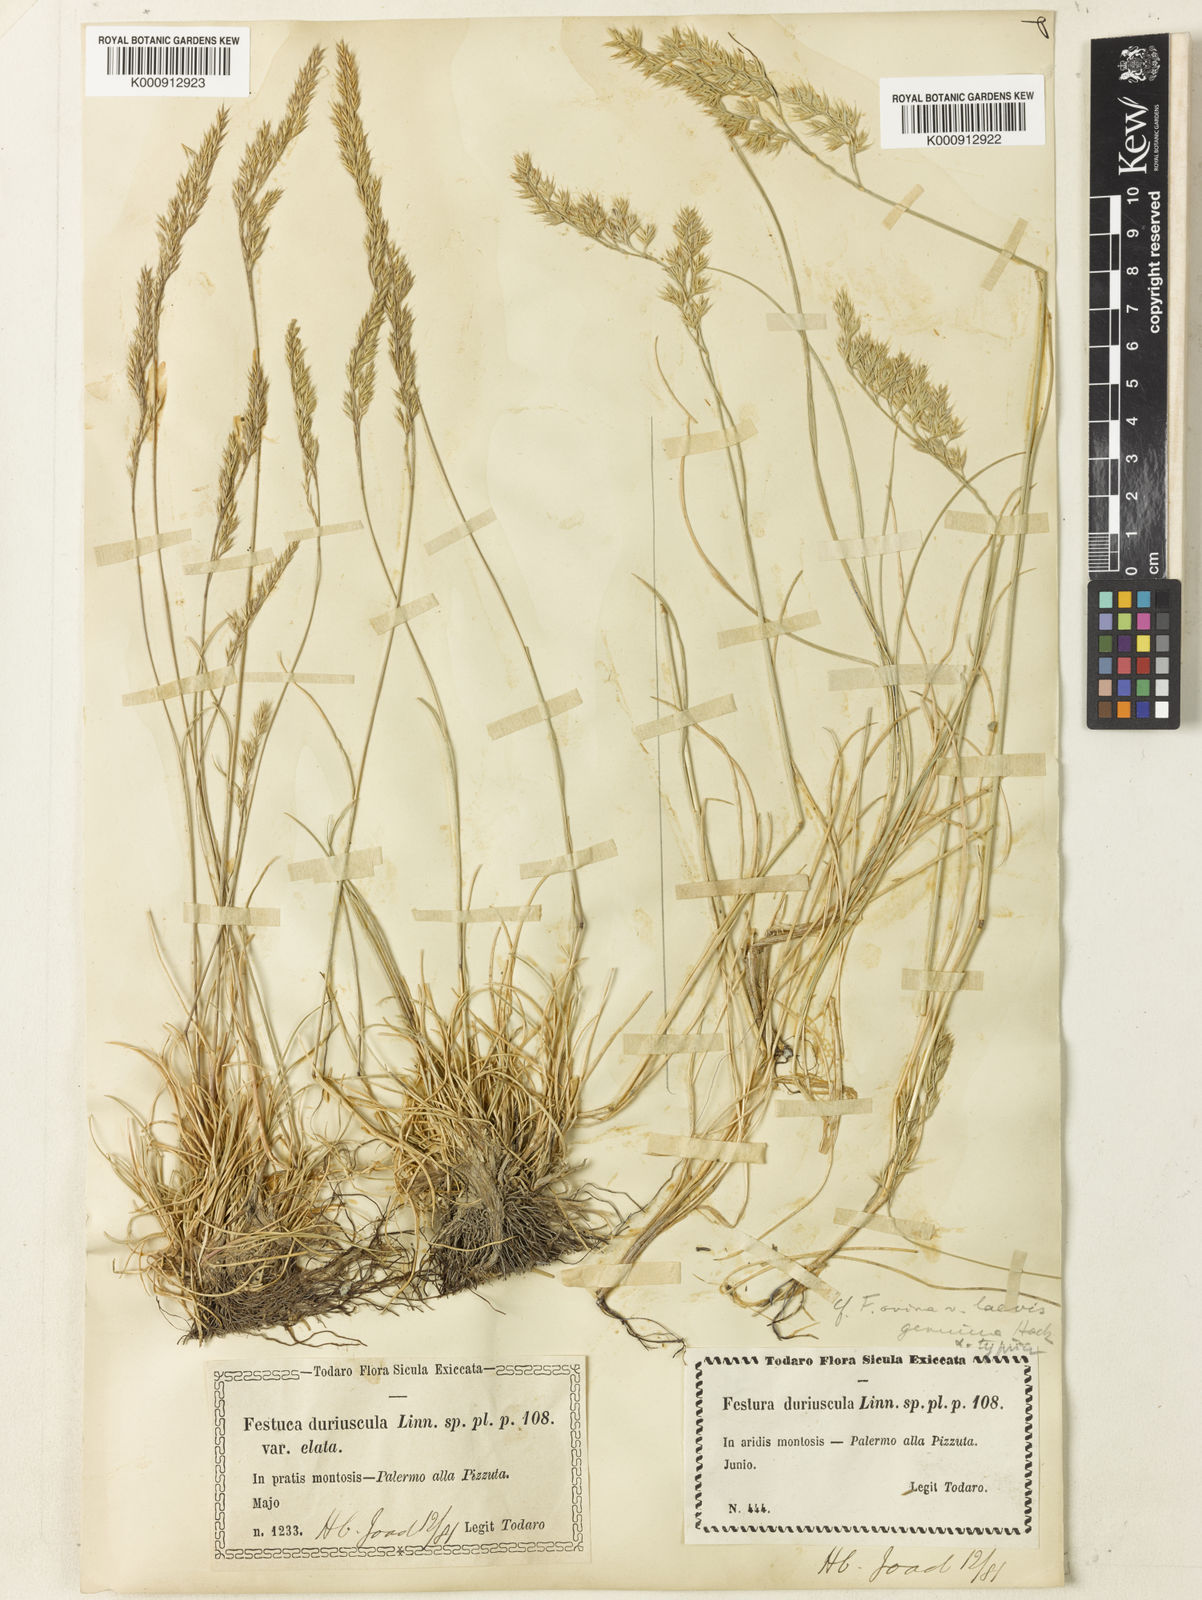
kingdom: Plantae
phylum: Tracheophyta
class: Liliopsida
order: Poales
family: Poaceae
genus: Festuca
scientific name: Festuca circummediterranea
